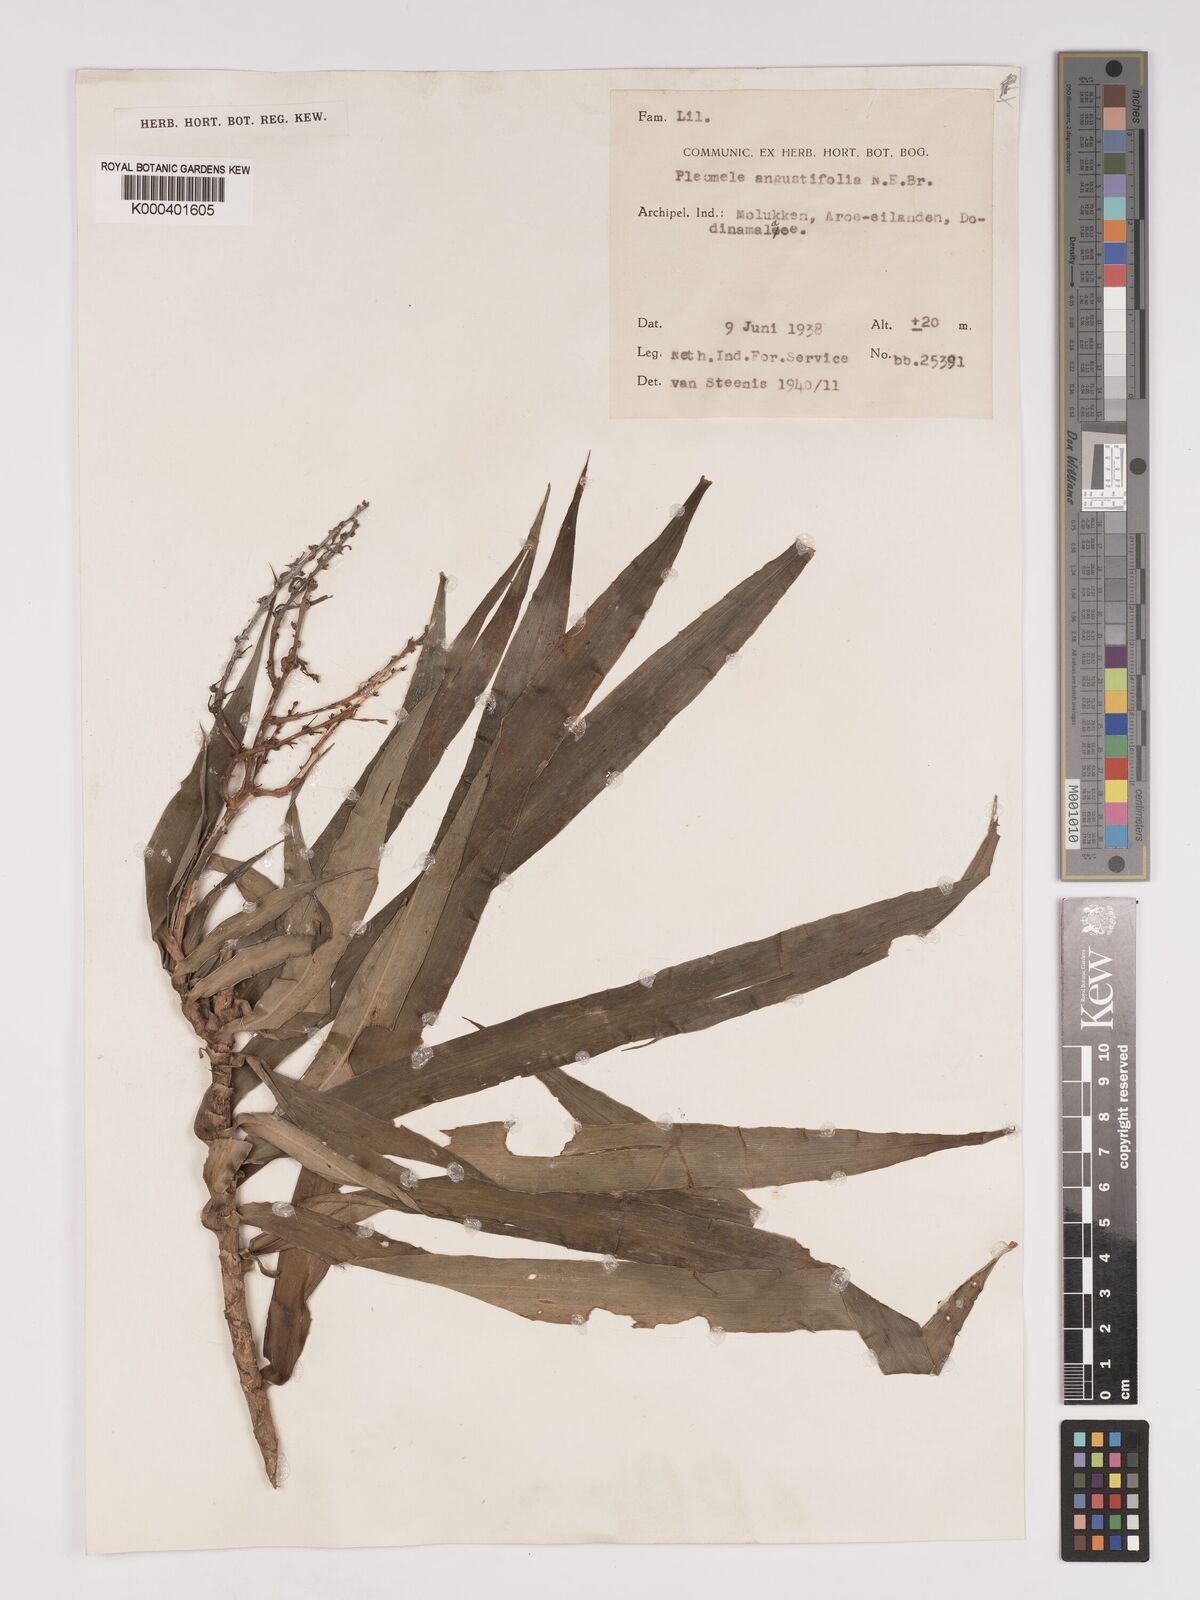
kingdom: Plantae
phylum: Tracheophyta
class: Liliopsida
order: Asparagales
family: Asparagaceae
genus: Dracaena
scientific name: Dracaena angustifolia
